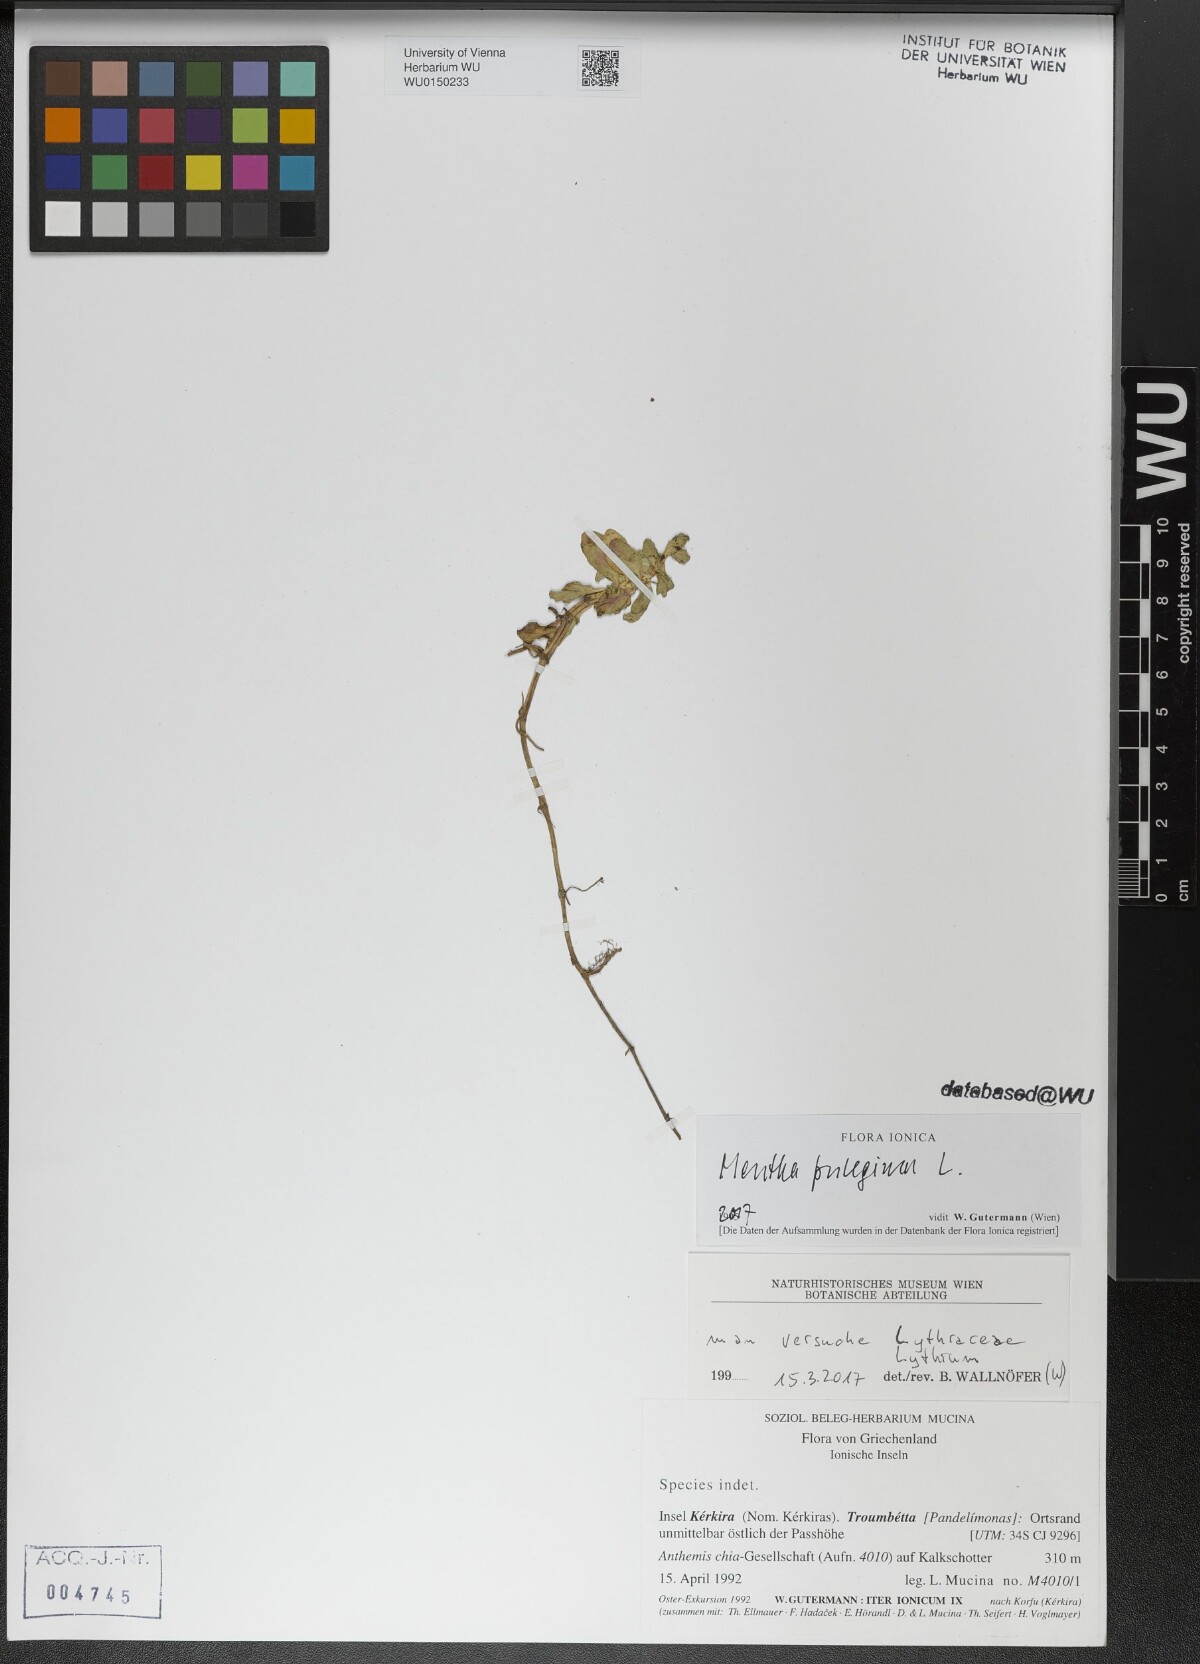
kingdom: Plantae
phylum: Tracheophyta
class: Magnoliopsida
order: Lamiales
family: Lamiaceae
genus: Mentha
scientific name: Mentha pulegium
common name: Pennyroyal
